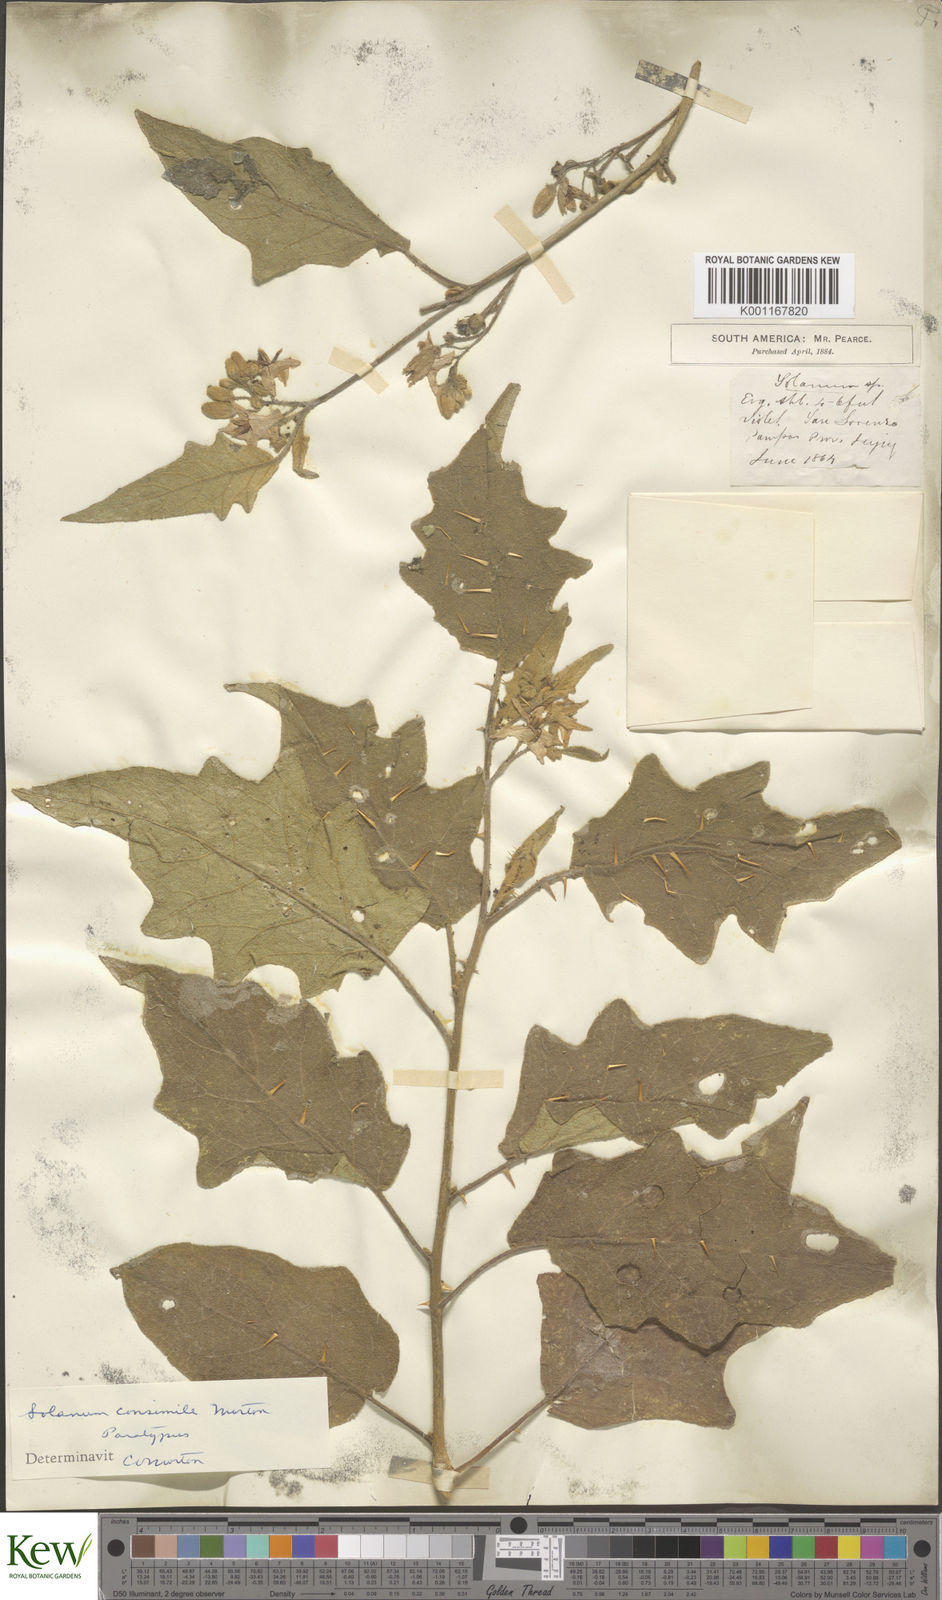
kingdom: Plantae
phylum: Tracheophyta
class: Magnoliopsida
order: Solanales
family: Solanaceae
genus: Solanum
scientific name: Solanum consimile
